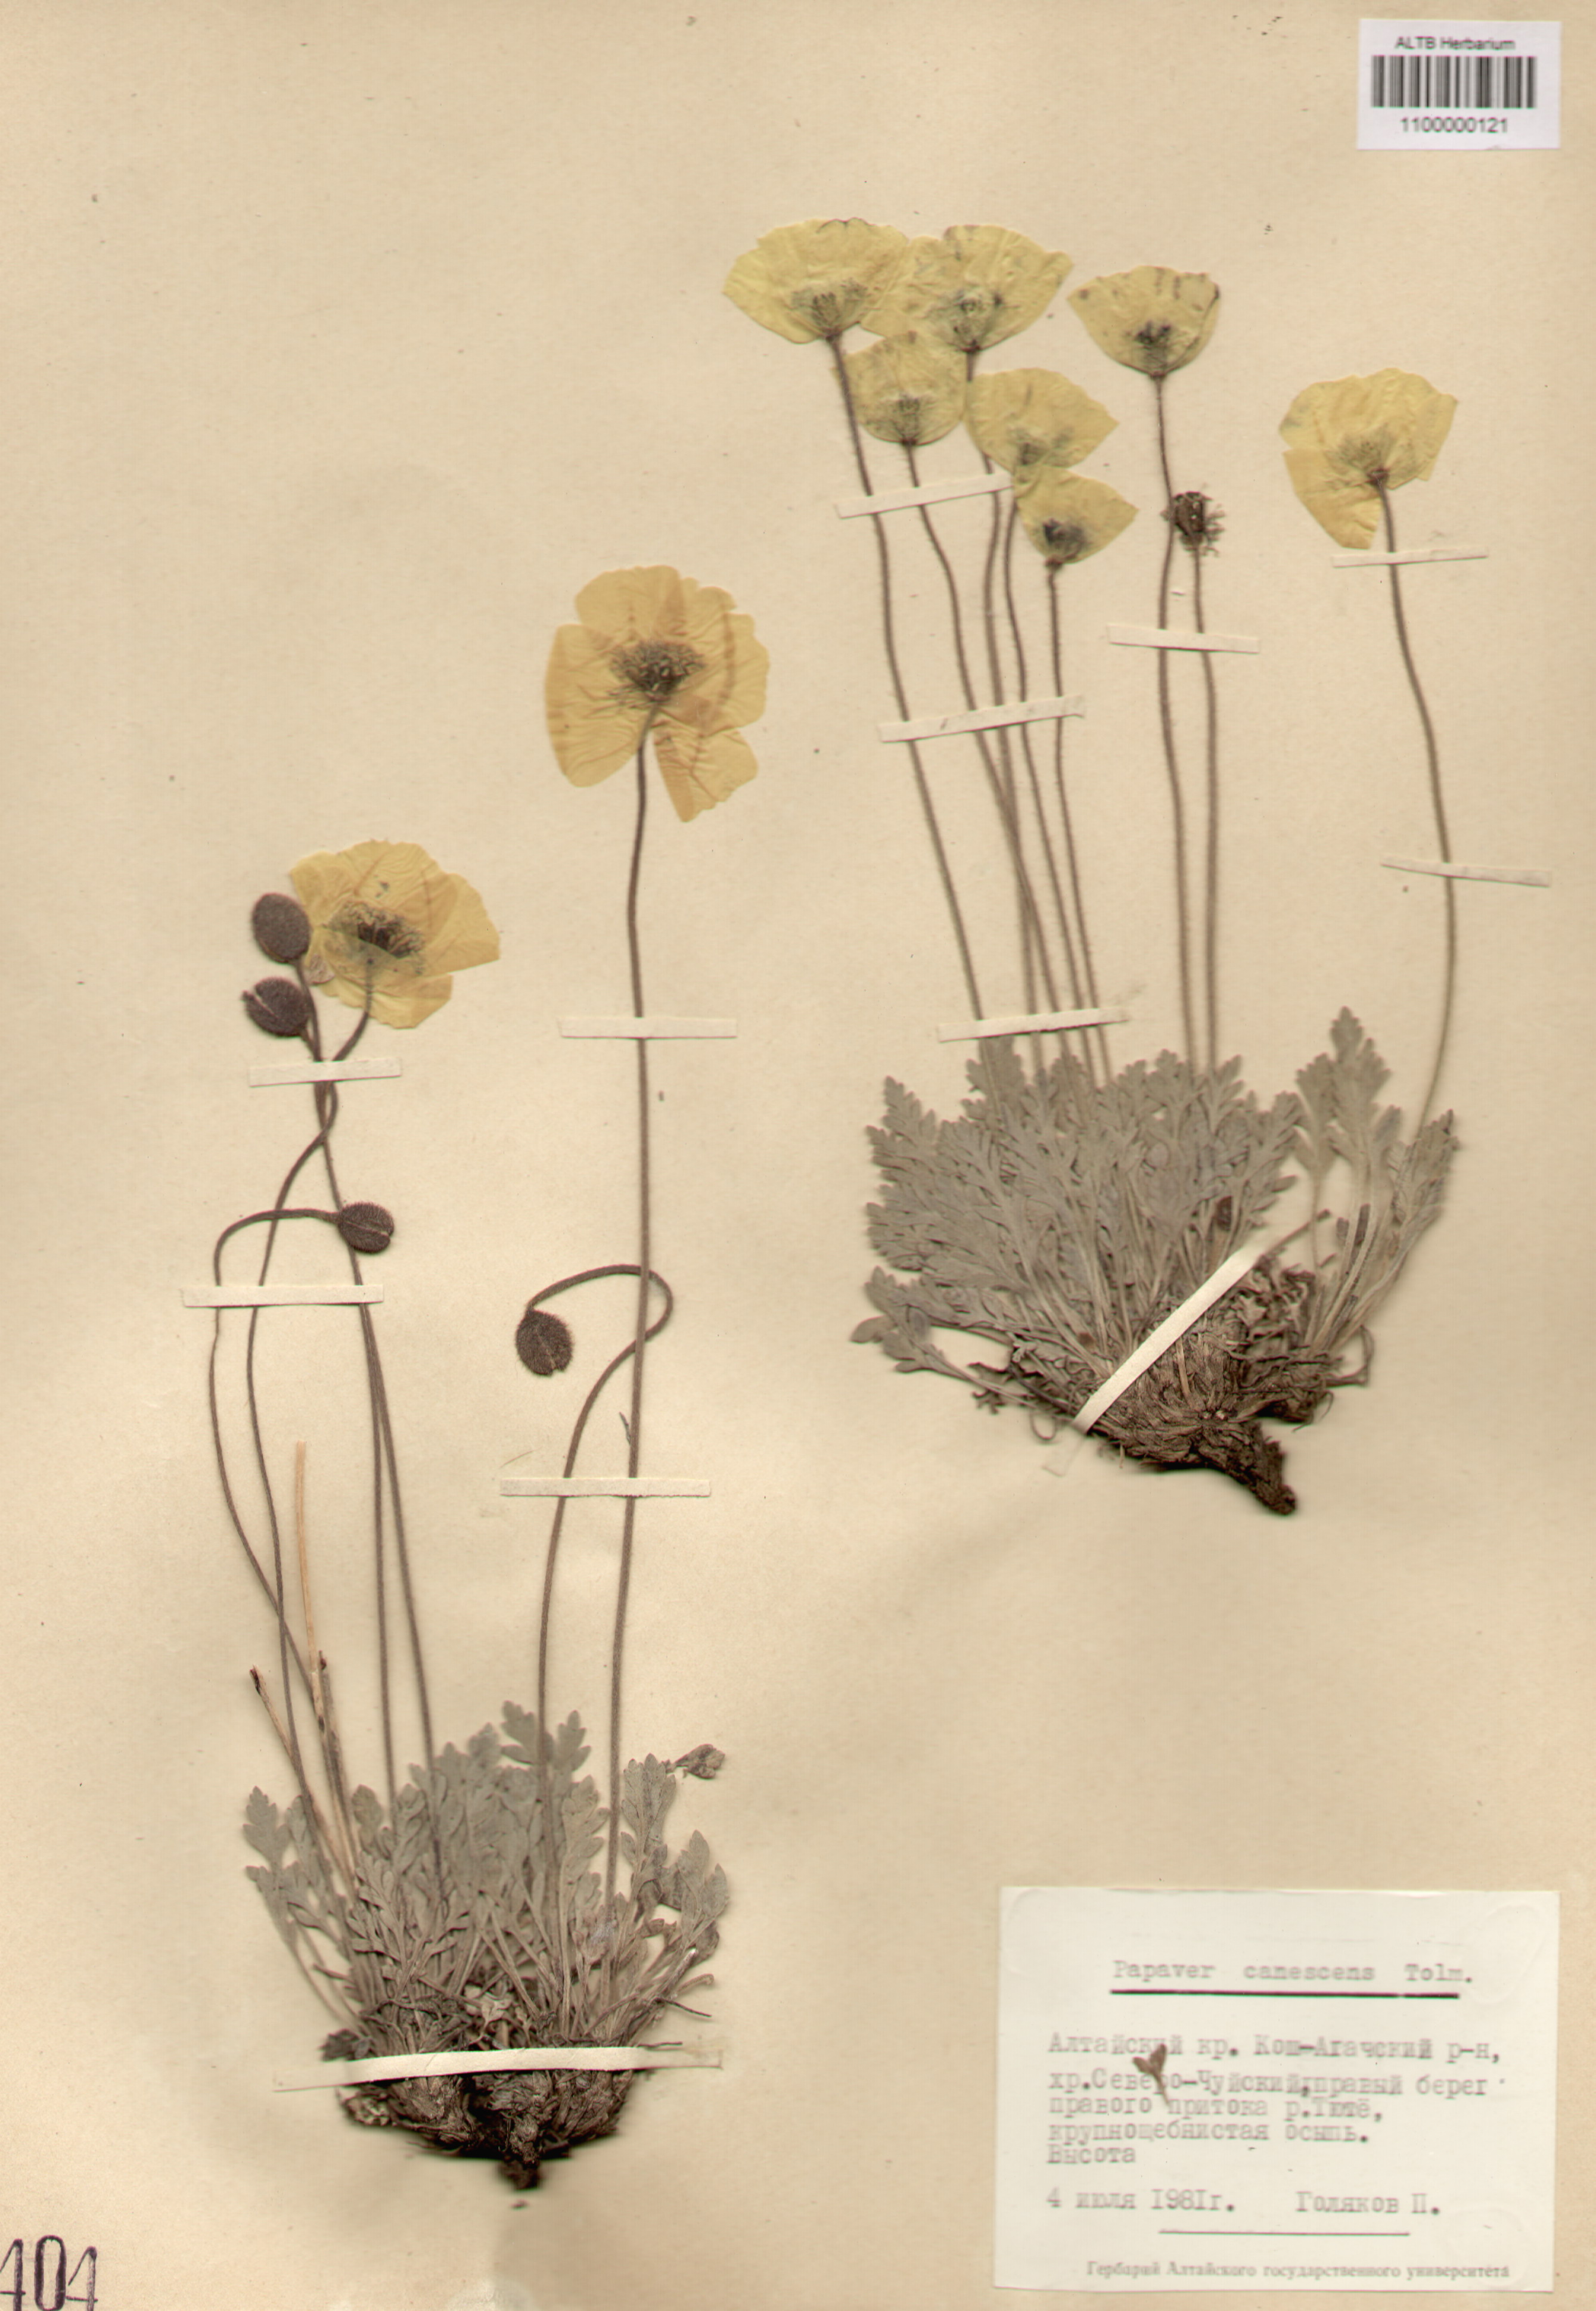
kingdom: Plantae
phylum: Tracheophyta
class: Magnoliopsida
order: Ranunculales
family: Papaveraceae
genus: Papaver
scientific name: Papaver canescens
